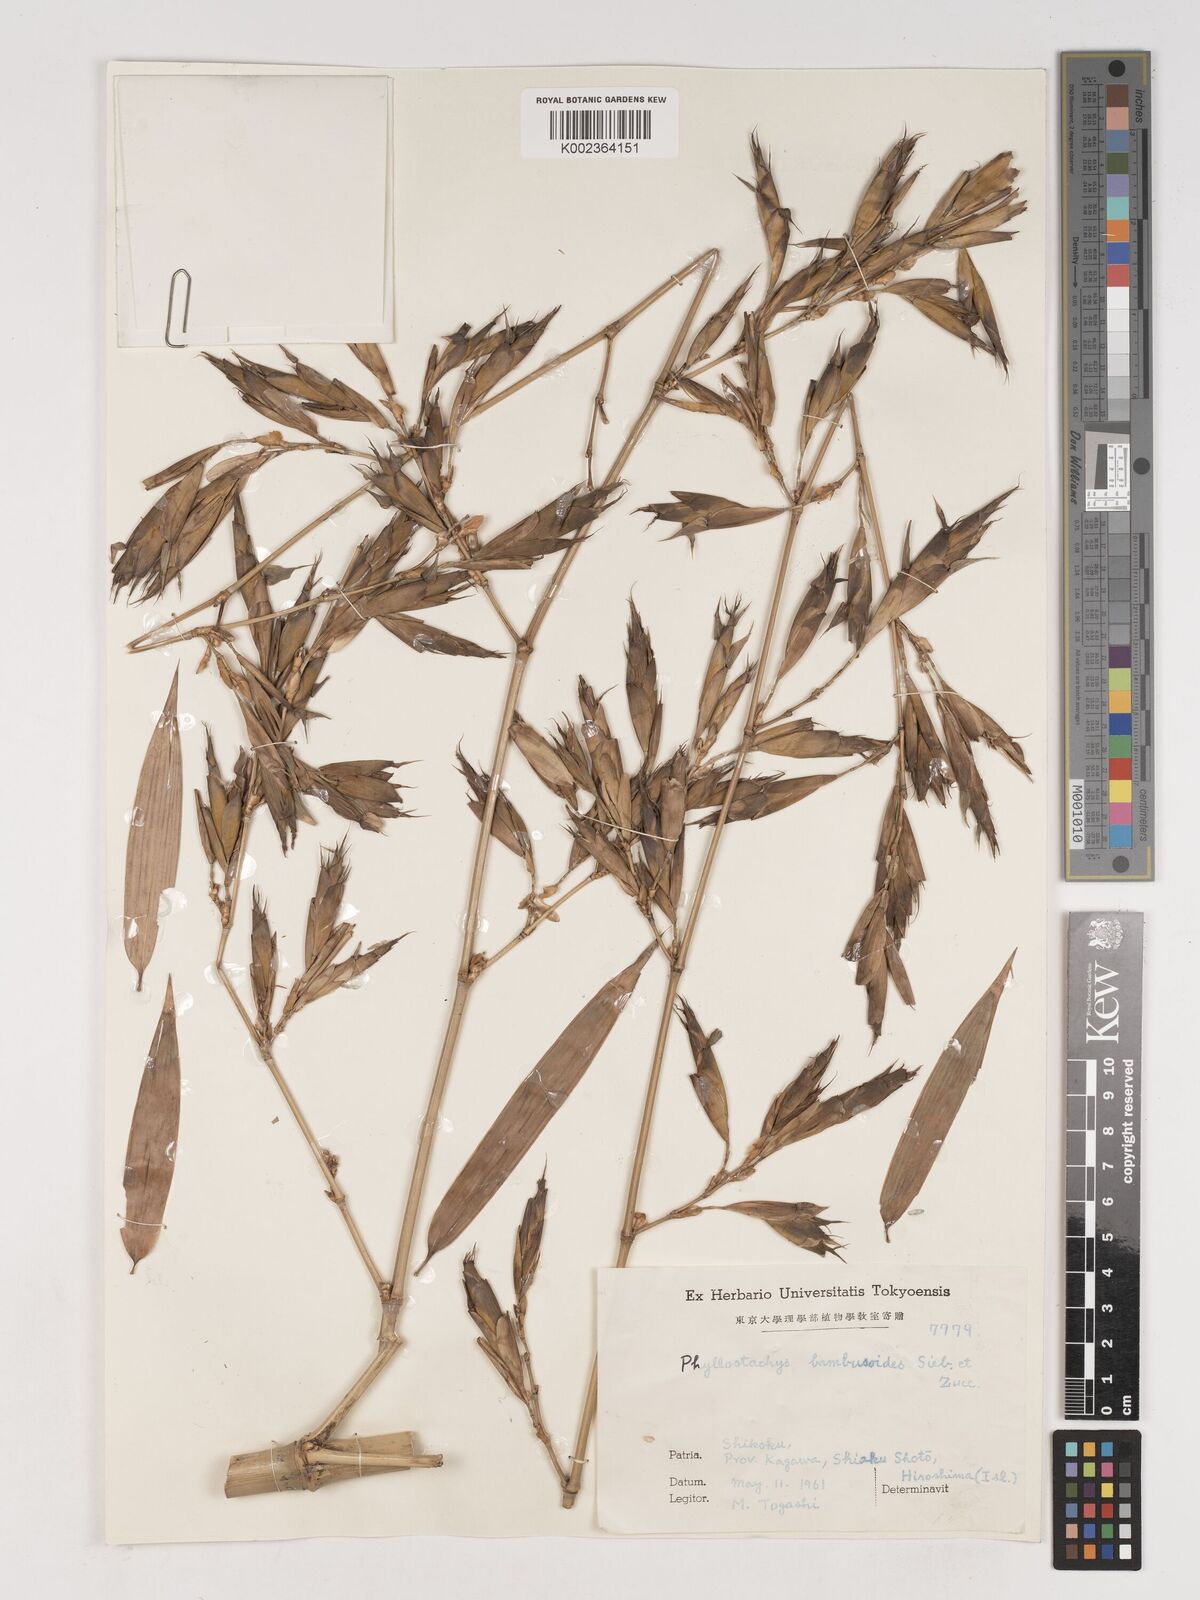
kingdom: Plantae
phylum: Tracheophyta
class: Liliopsida
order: Poales
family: Poaceae
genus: Phyllostachys
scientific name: Phyllostachys reticulata
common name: Bamboo
